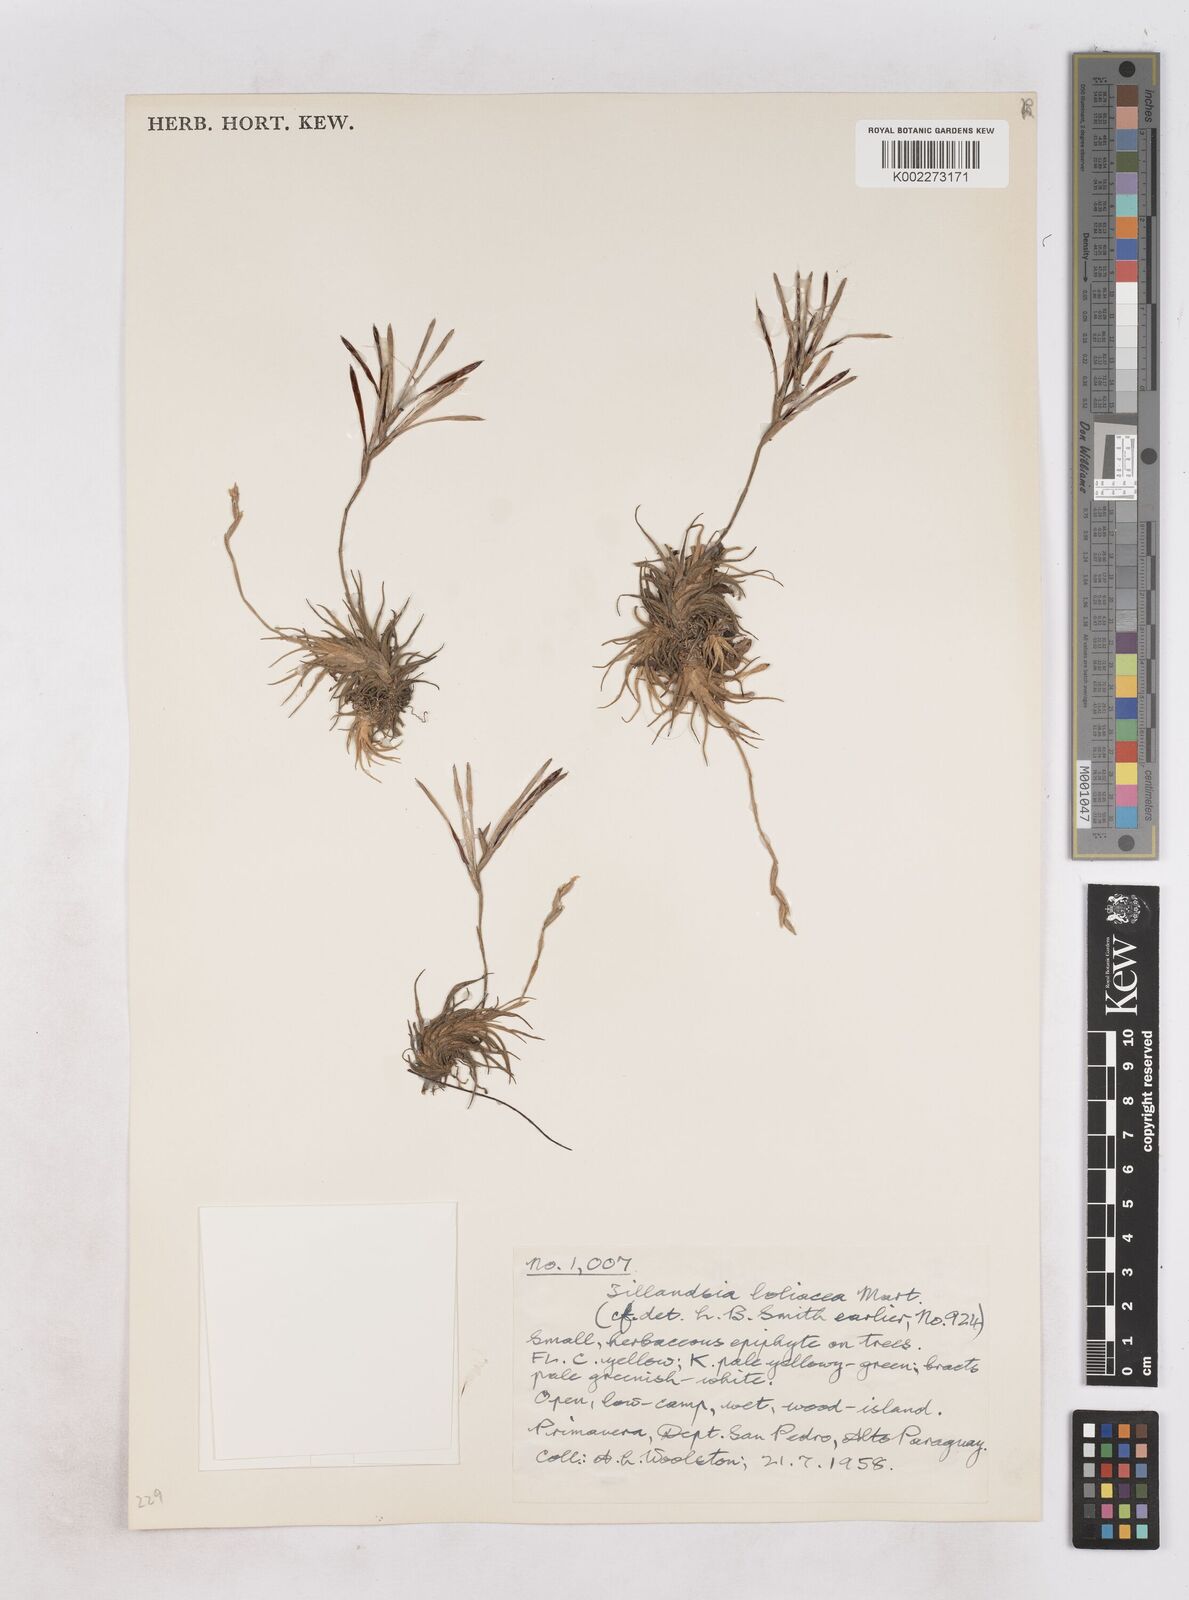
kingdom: Plantae
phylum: Tracheophyta
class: Liliopsida
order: Poales
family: Bromeliaceae
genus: Tillandsia
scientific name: Tillandsia loliacea
